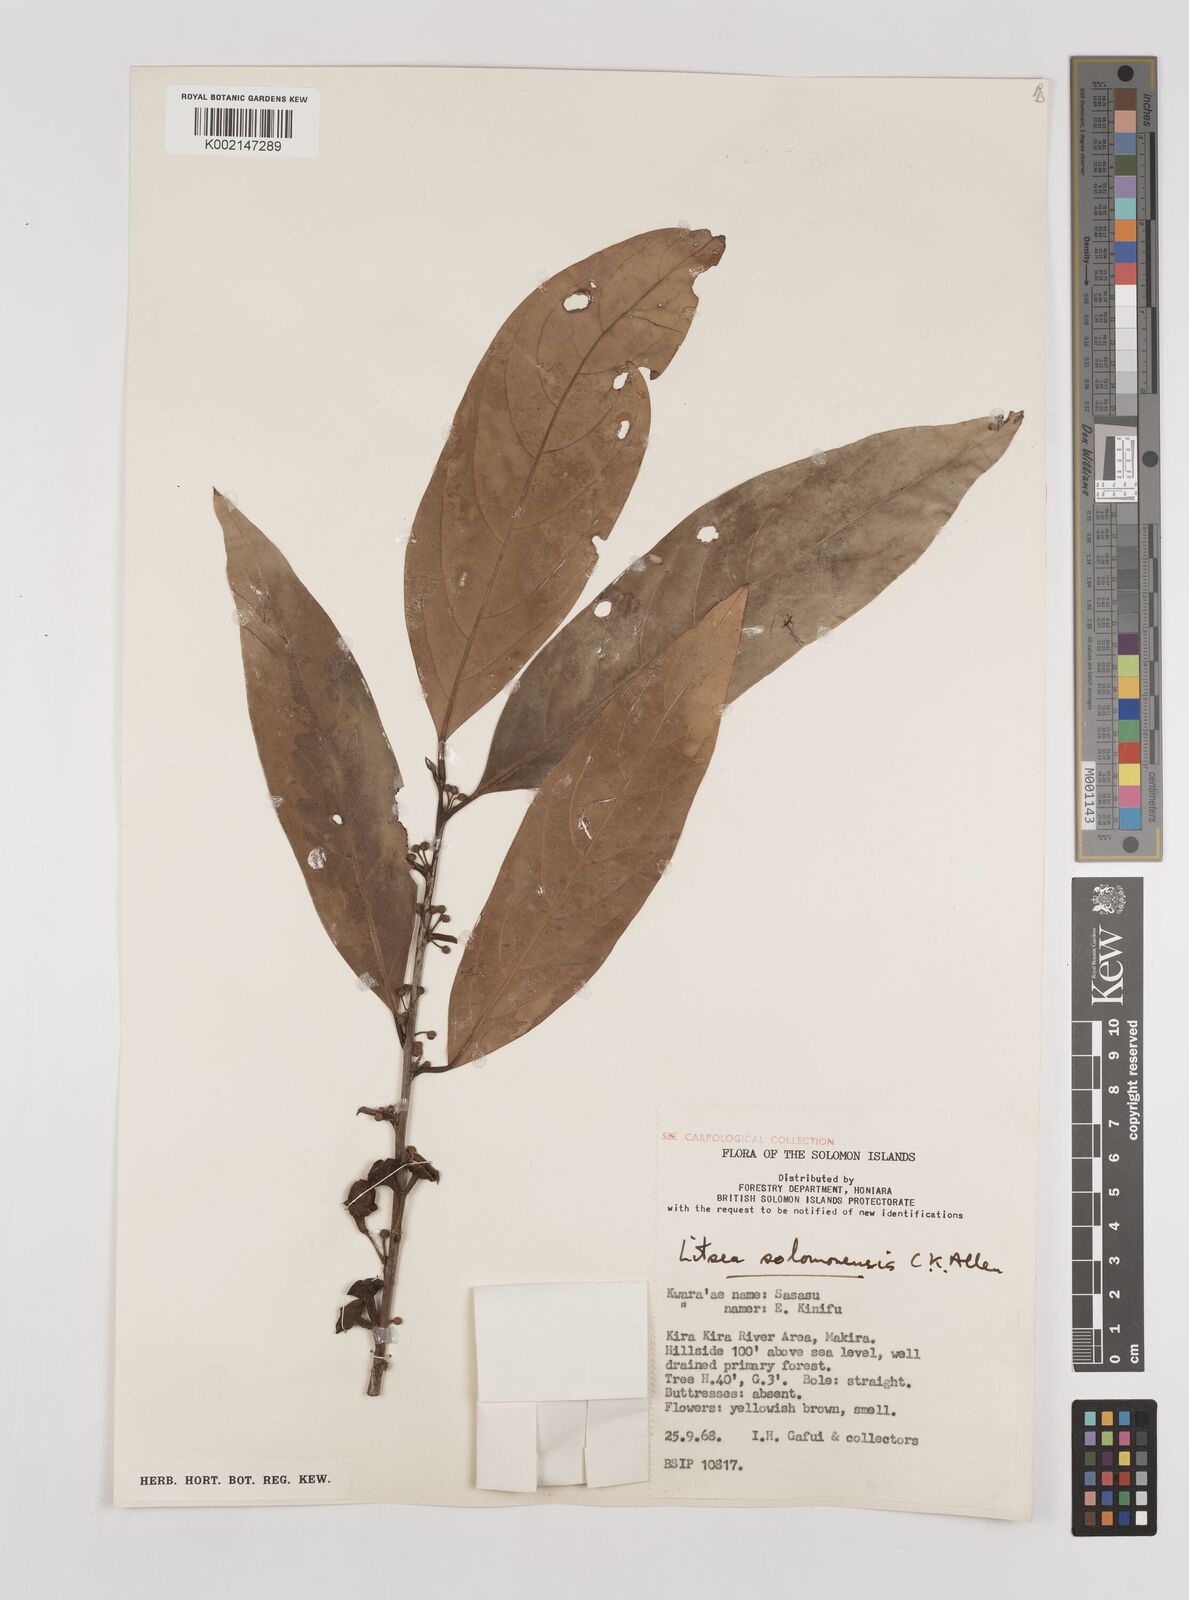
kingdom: Plantae
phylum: Tracheophyta
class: Magnoliopsida
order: Laurales
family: Lauraceae
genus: Litsea
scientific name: Litsea timoriana
